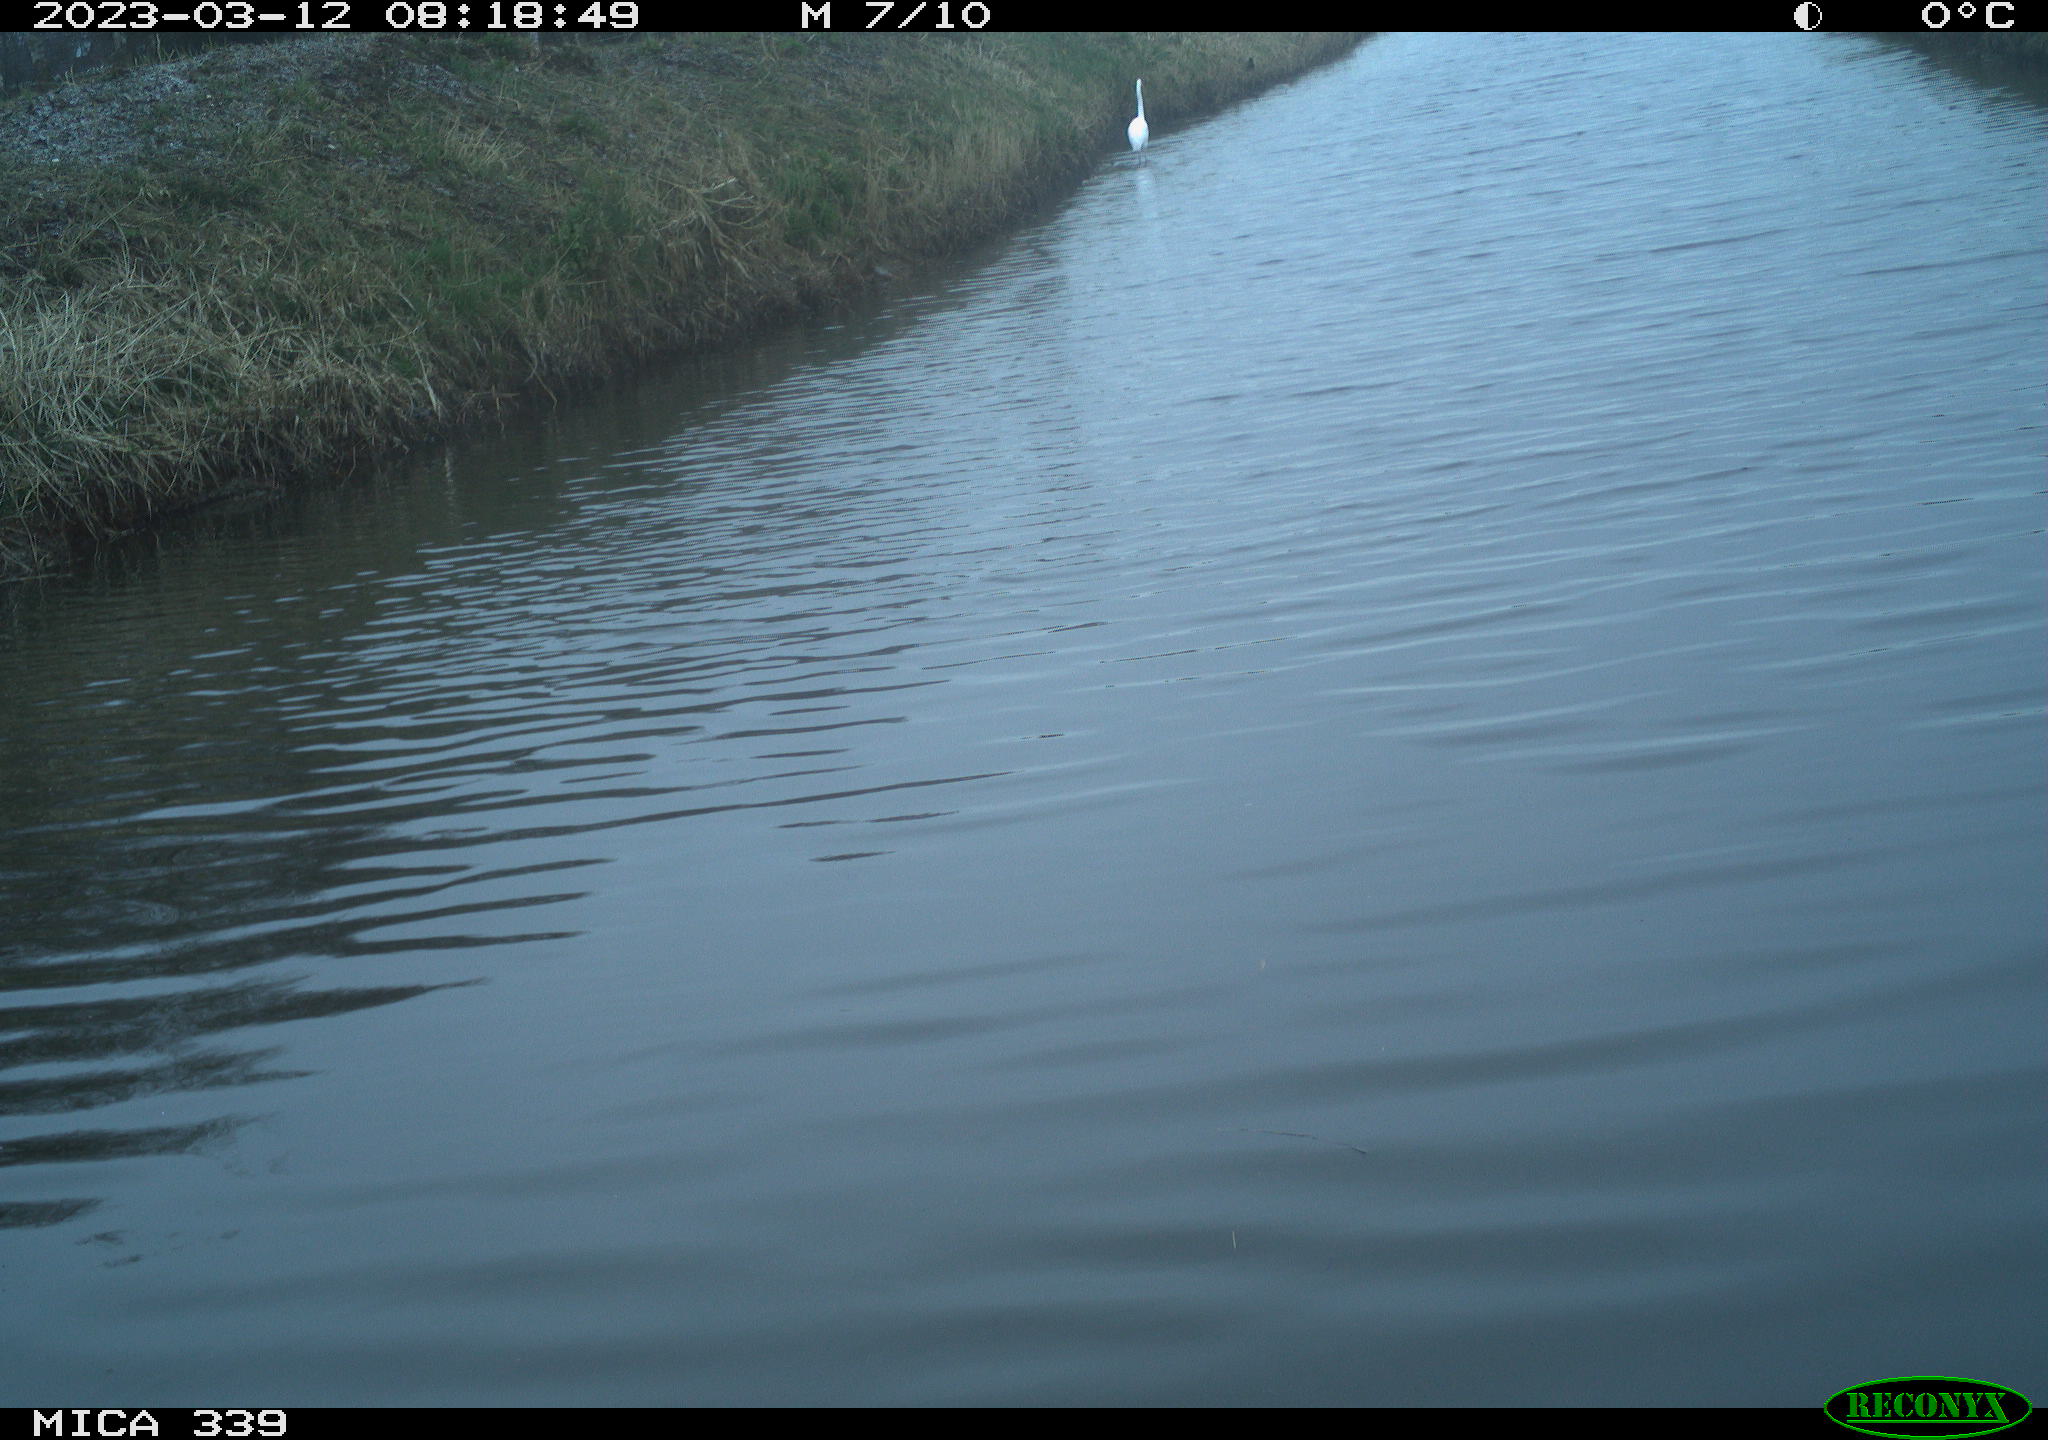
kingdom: Animalia
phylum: Chordata
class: Aves
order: Pelecaniformes
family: Ardeidae
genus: Ardea
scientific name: Ardea cinerea
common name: Grey heron
